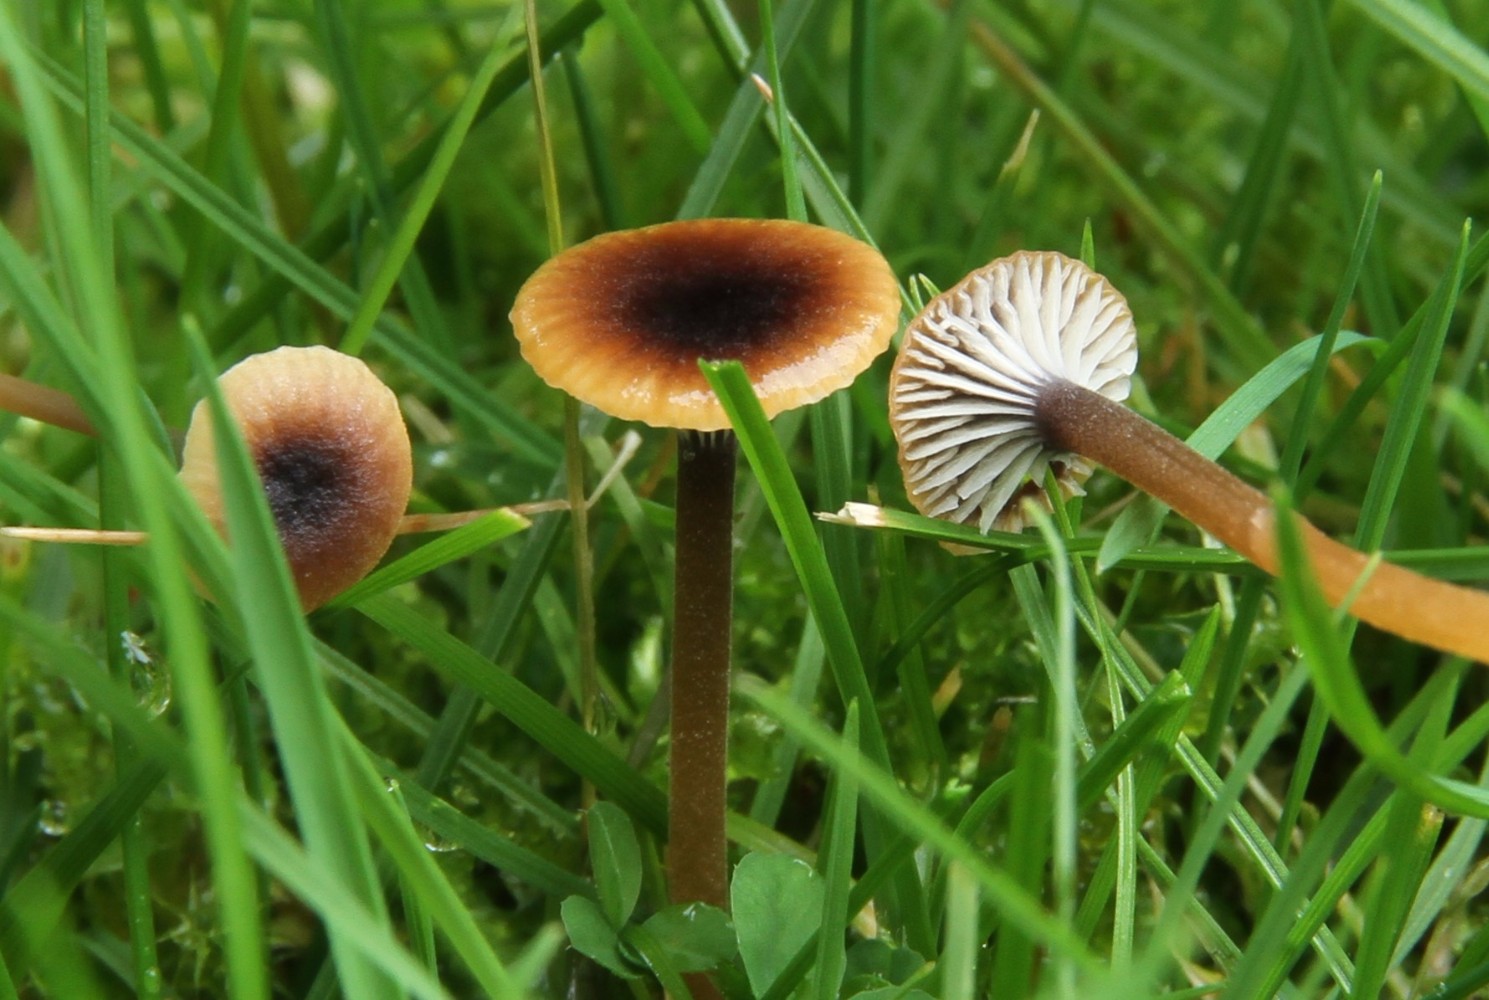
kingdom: Fungi
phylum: Basidiomycota
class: Agaricomycetes
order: Hymenochaetales
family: Rickenellaceae
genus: Rickenella
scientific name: Rickenella swartzii
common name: finstokket mosnavlehat
